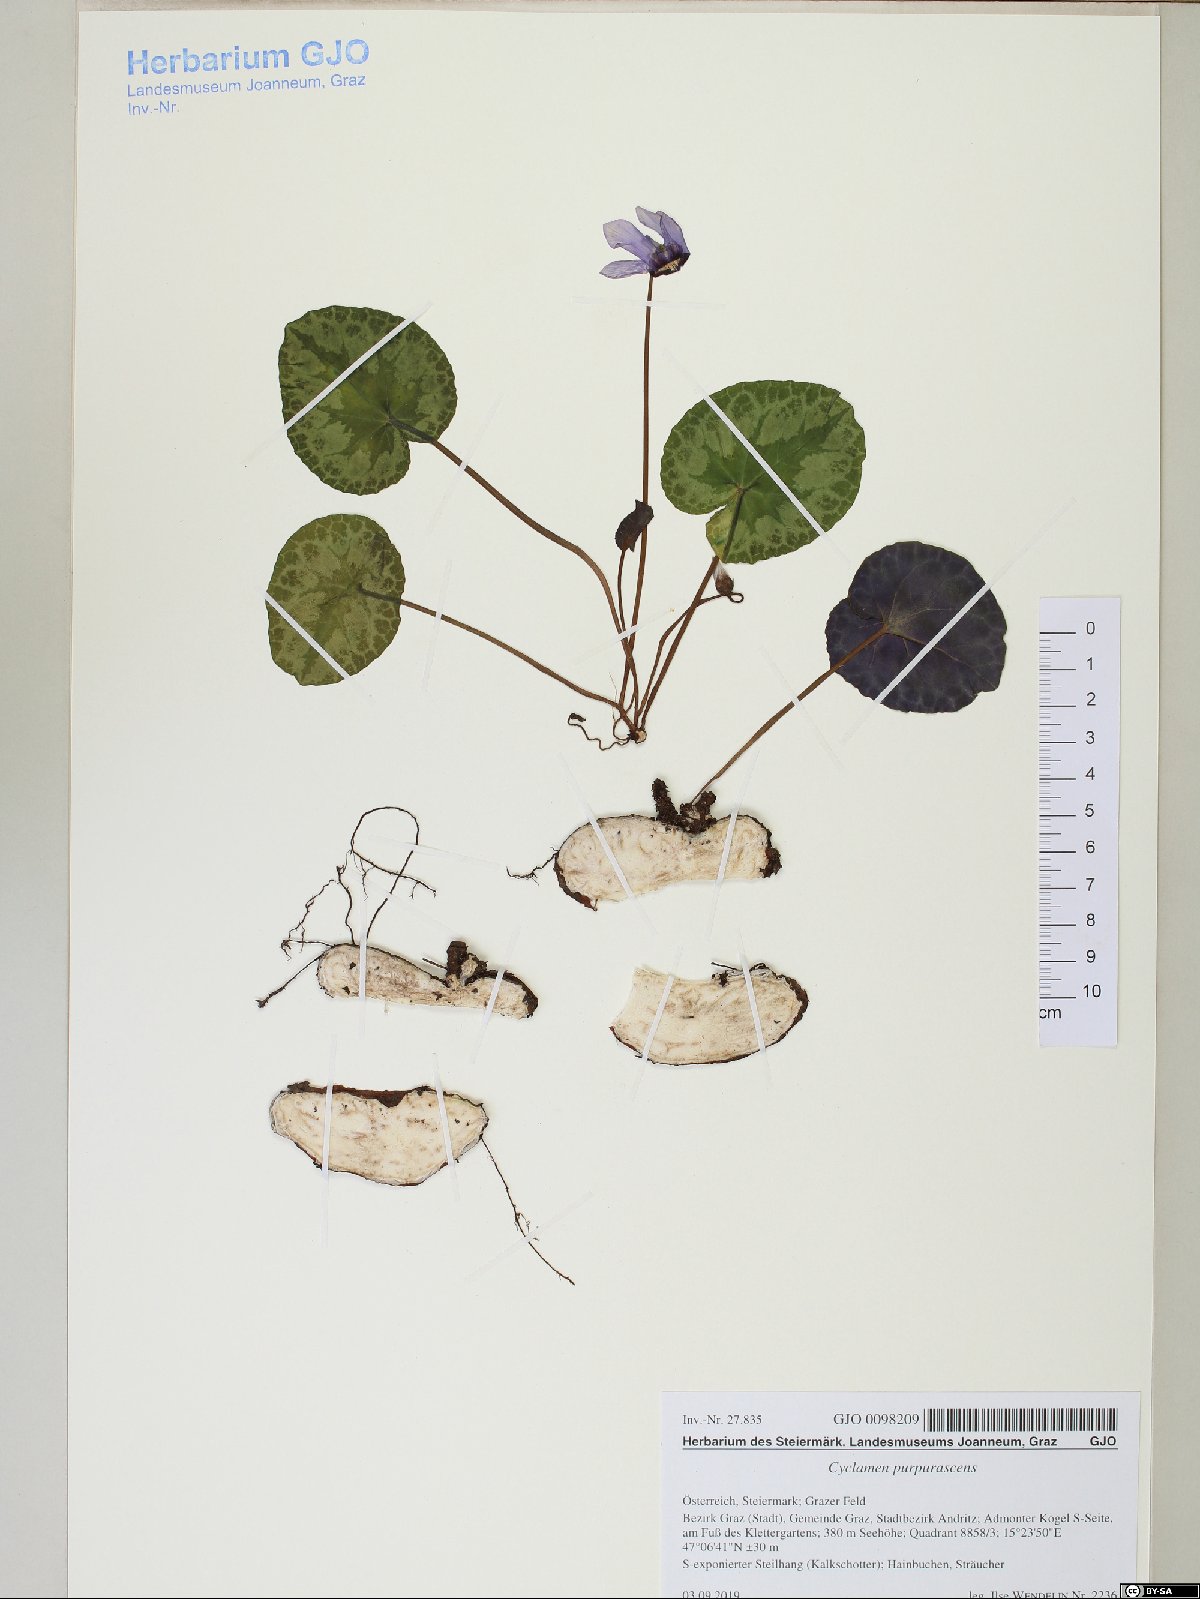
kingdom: Plantae
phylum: Tracheophyta
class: Magnoliopsida
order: Ericales
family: Primulaceae
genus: Cyclamen
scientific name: Cyclamen purpurascens
